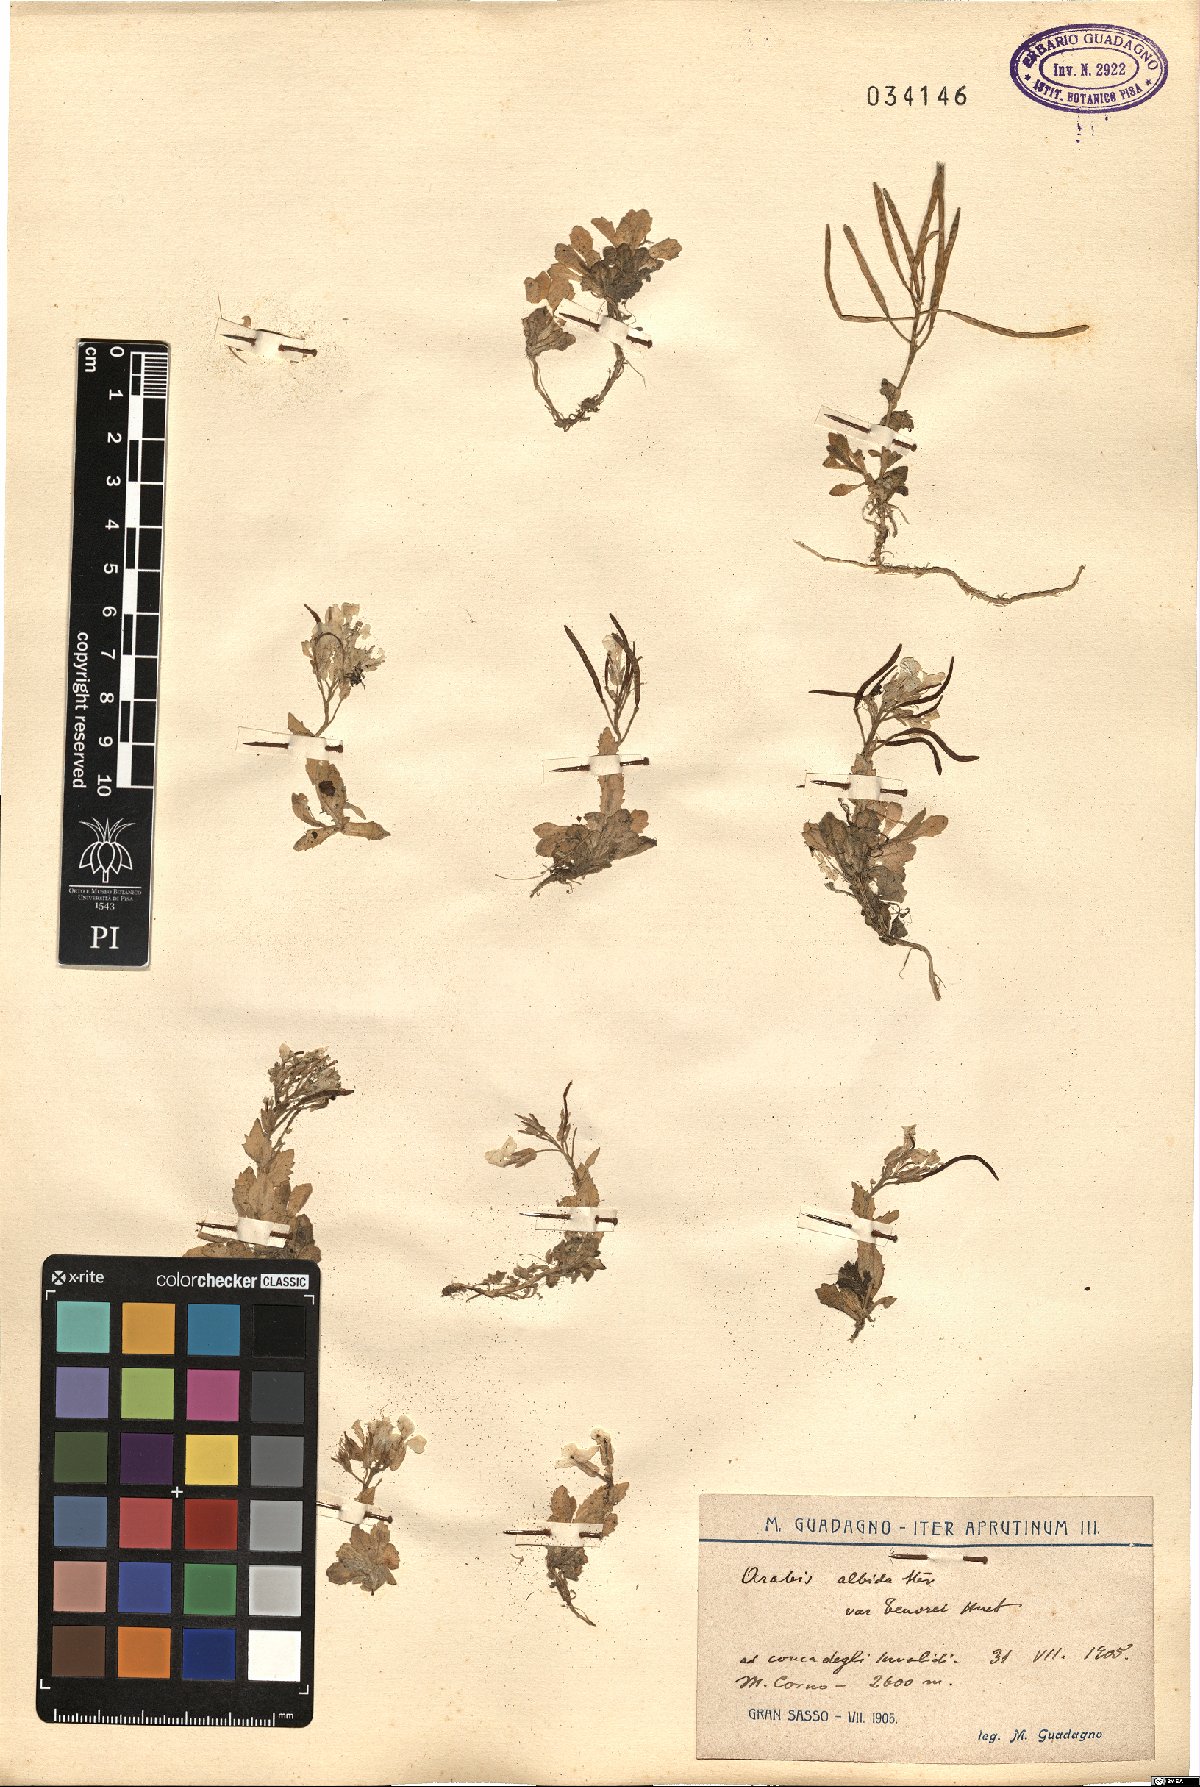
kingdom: Plantae
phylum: Tracheophyta
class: Magnoliopsida
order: Brassicales
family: Brassicaceae
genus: Arabis
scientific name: Arabis
